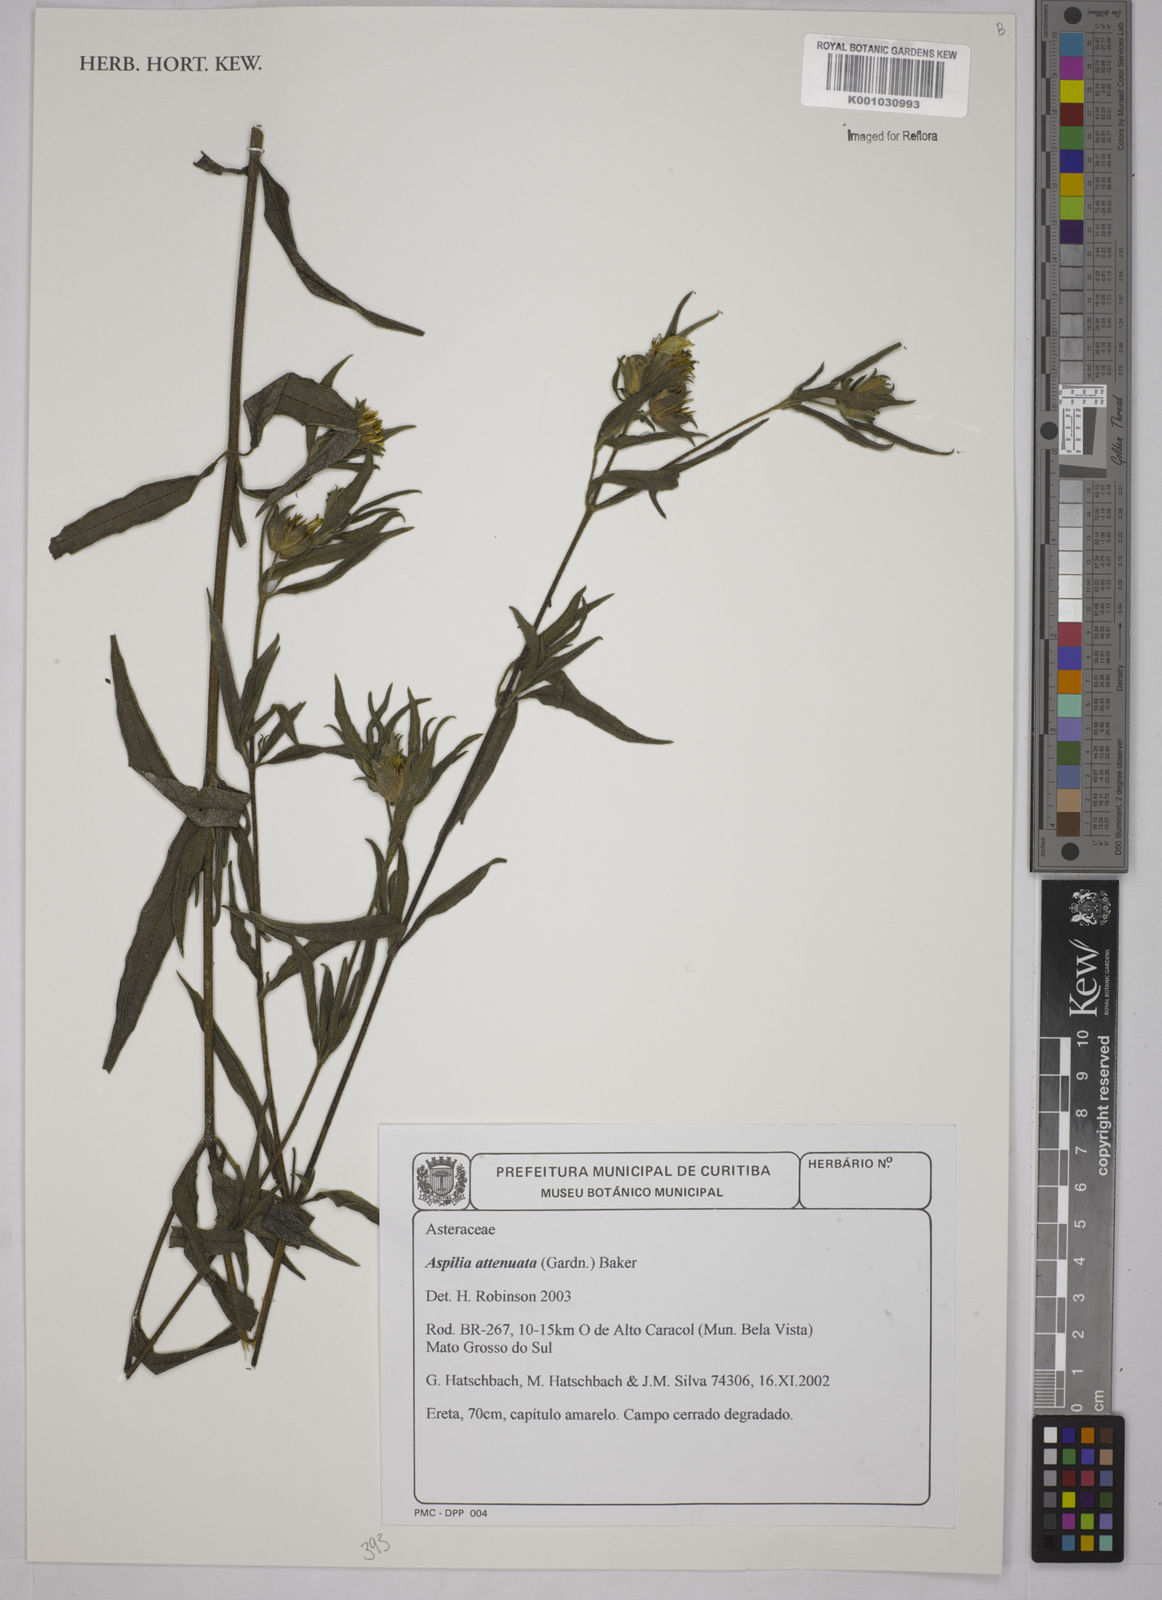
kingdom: Plantae
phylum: Tracheophyta
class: Magnoliopsida
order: Asterales
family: Asteraceae
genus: Wedelia
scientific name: Wedelia attenuata
